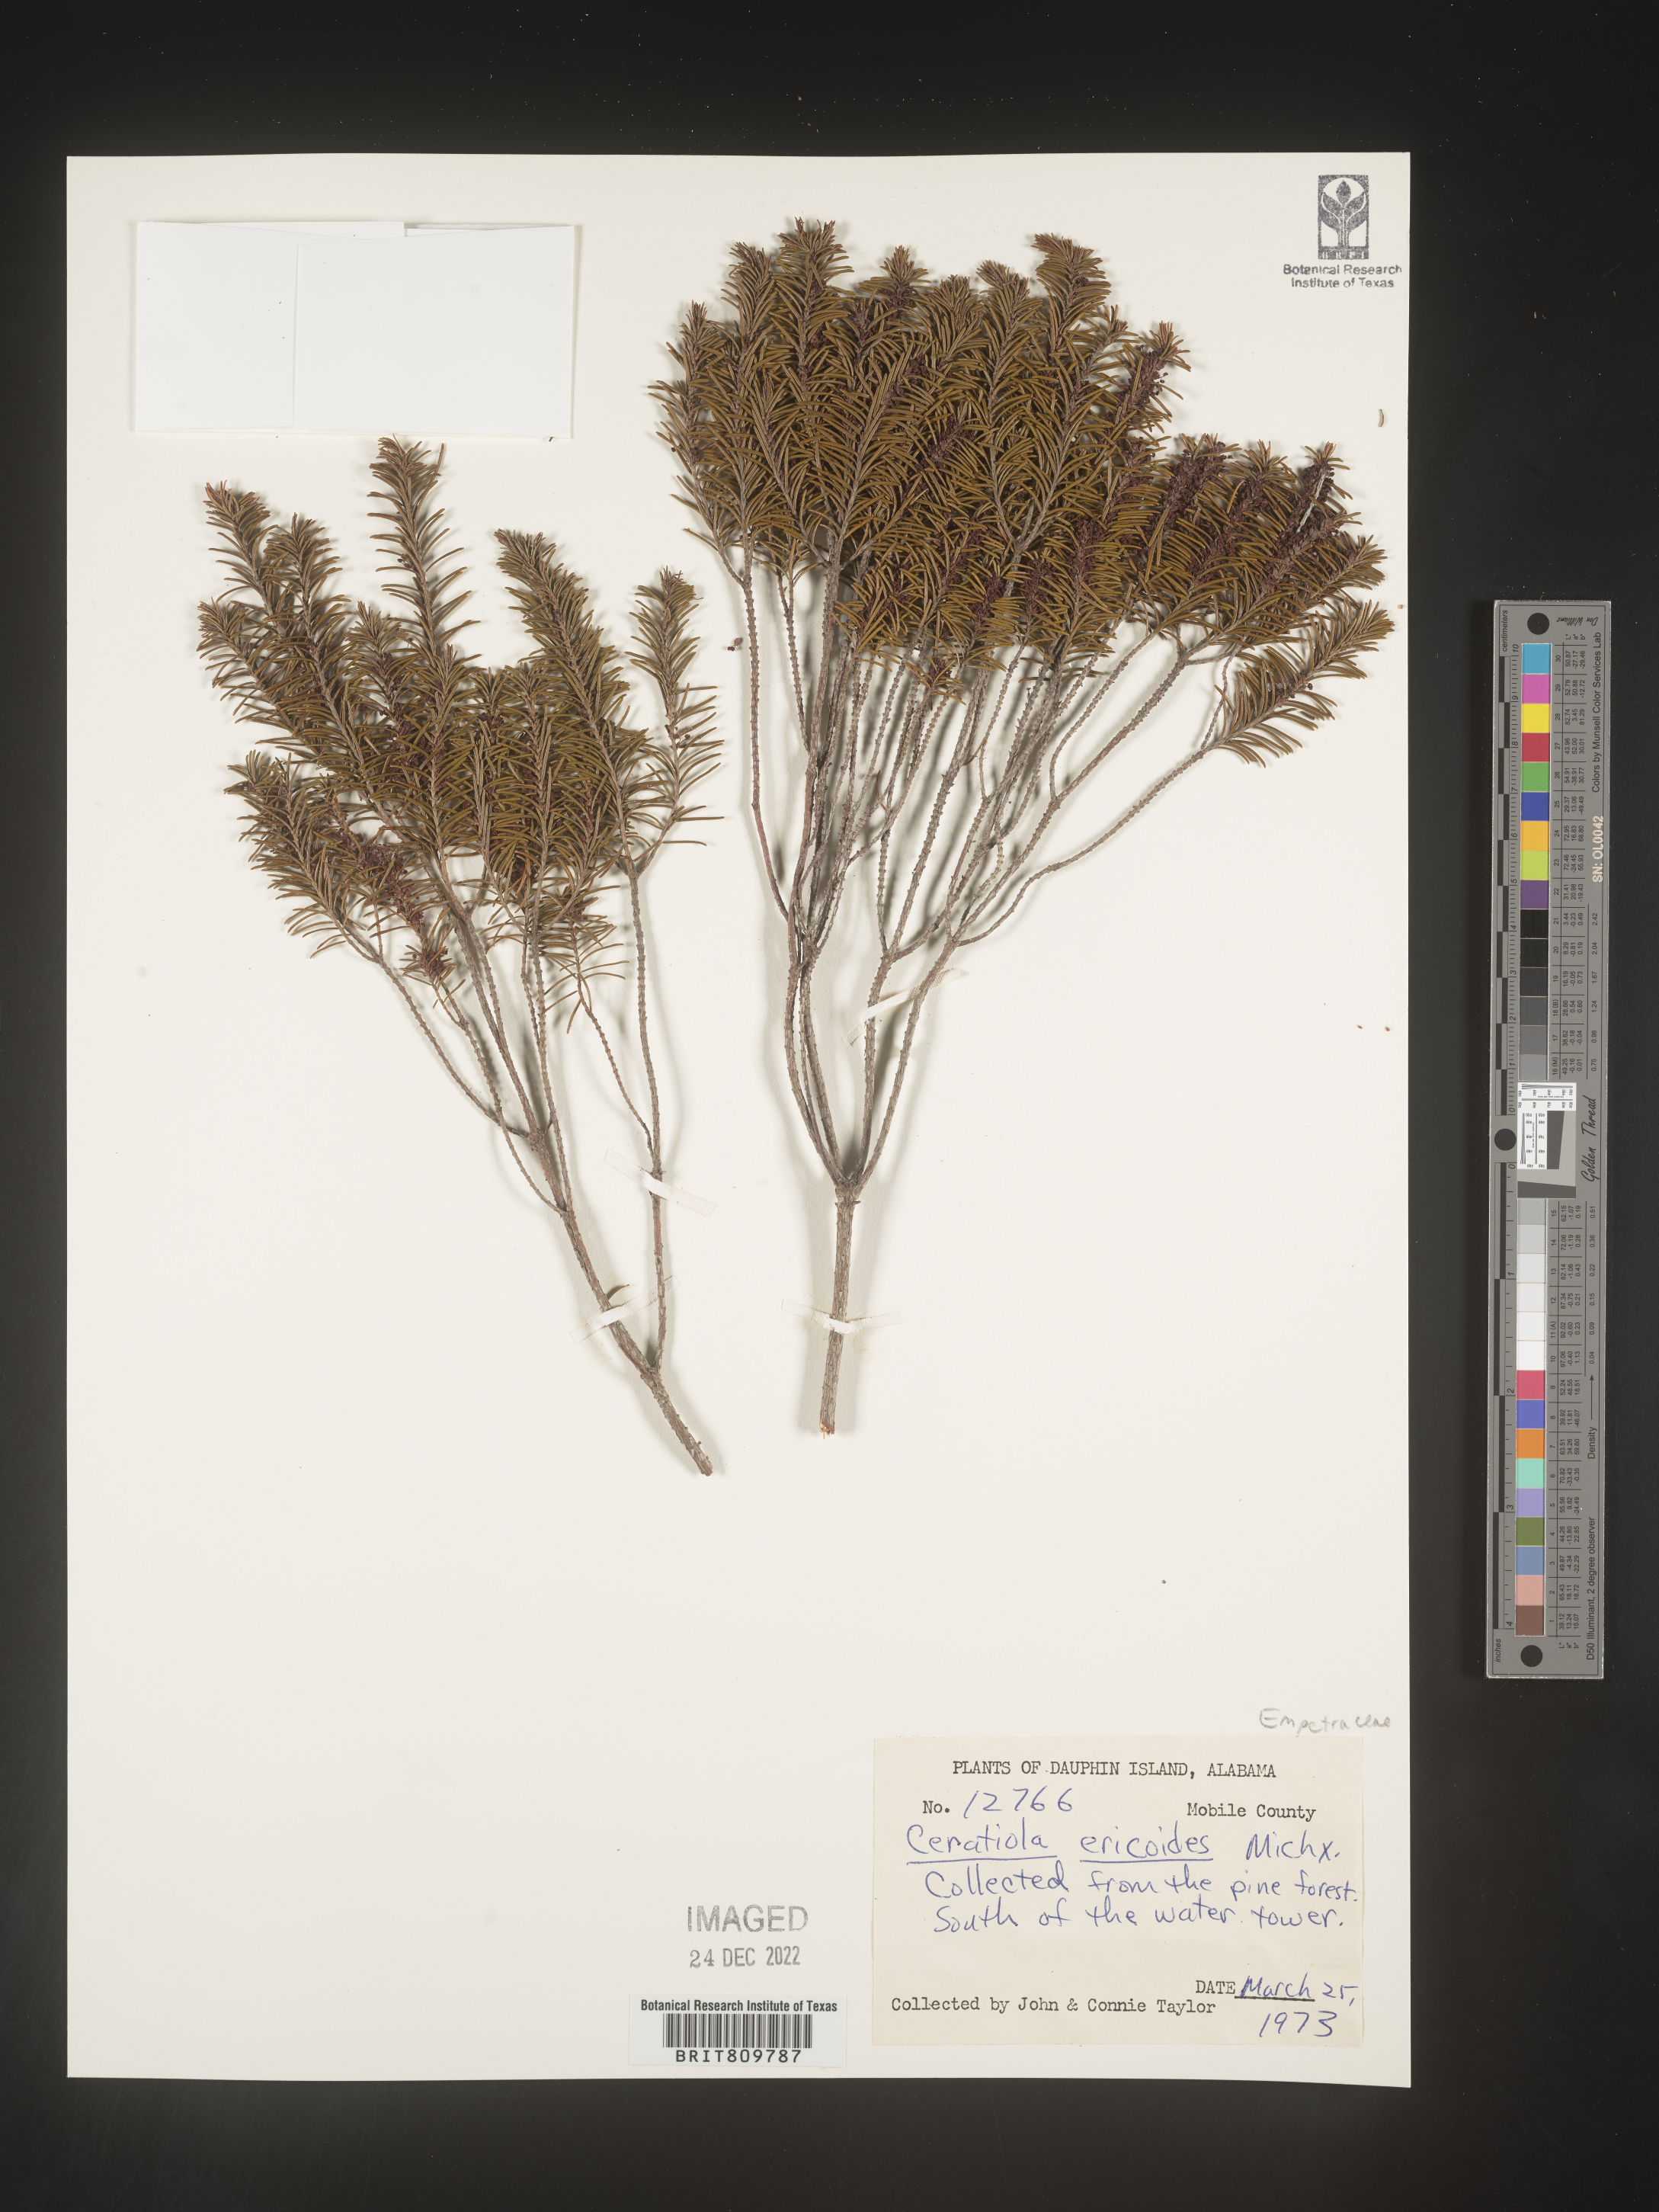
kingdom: Plantae
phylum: Tracheophyta
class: Magnoliopsida
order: Ericales
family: Ericaceae
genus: Ceratiola
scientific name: Ceratiola ericoides
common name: Sandhill-rosemary
